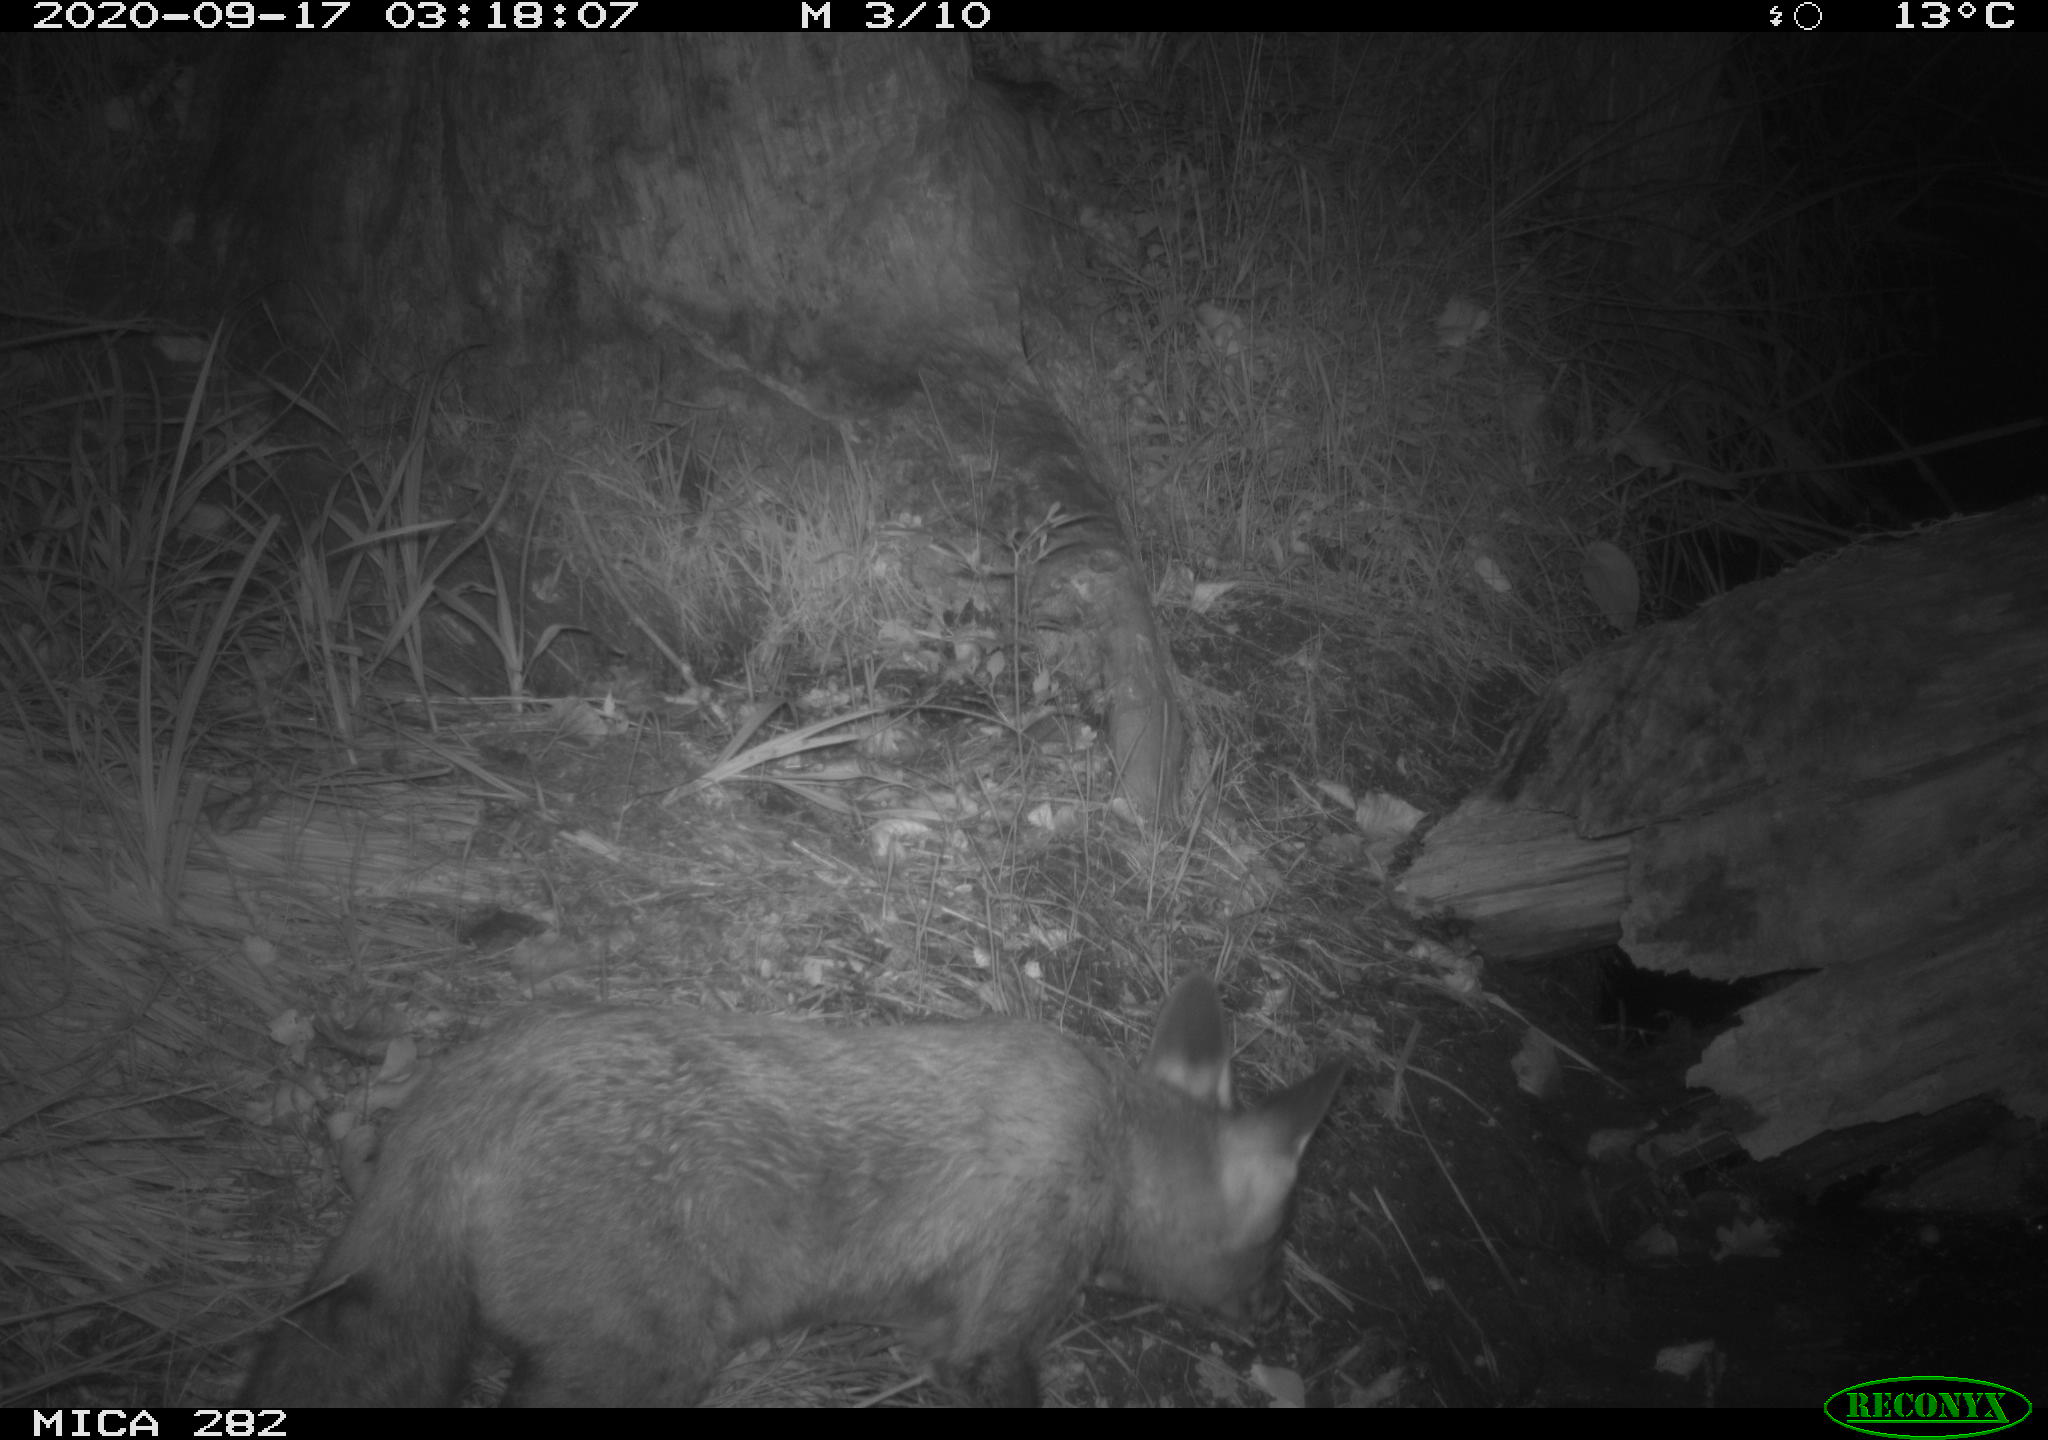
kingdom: Animalia
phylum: Chordata
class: Mammalia
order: Carnivora
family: Canidae
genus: Vulpes
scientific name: Vulpes vulpes
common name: Red fox
